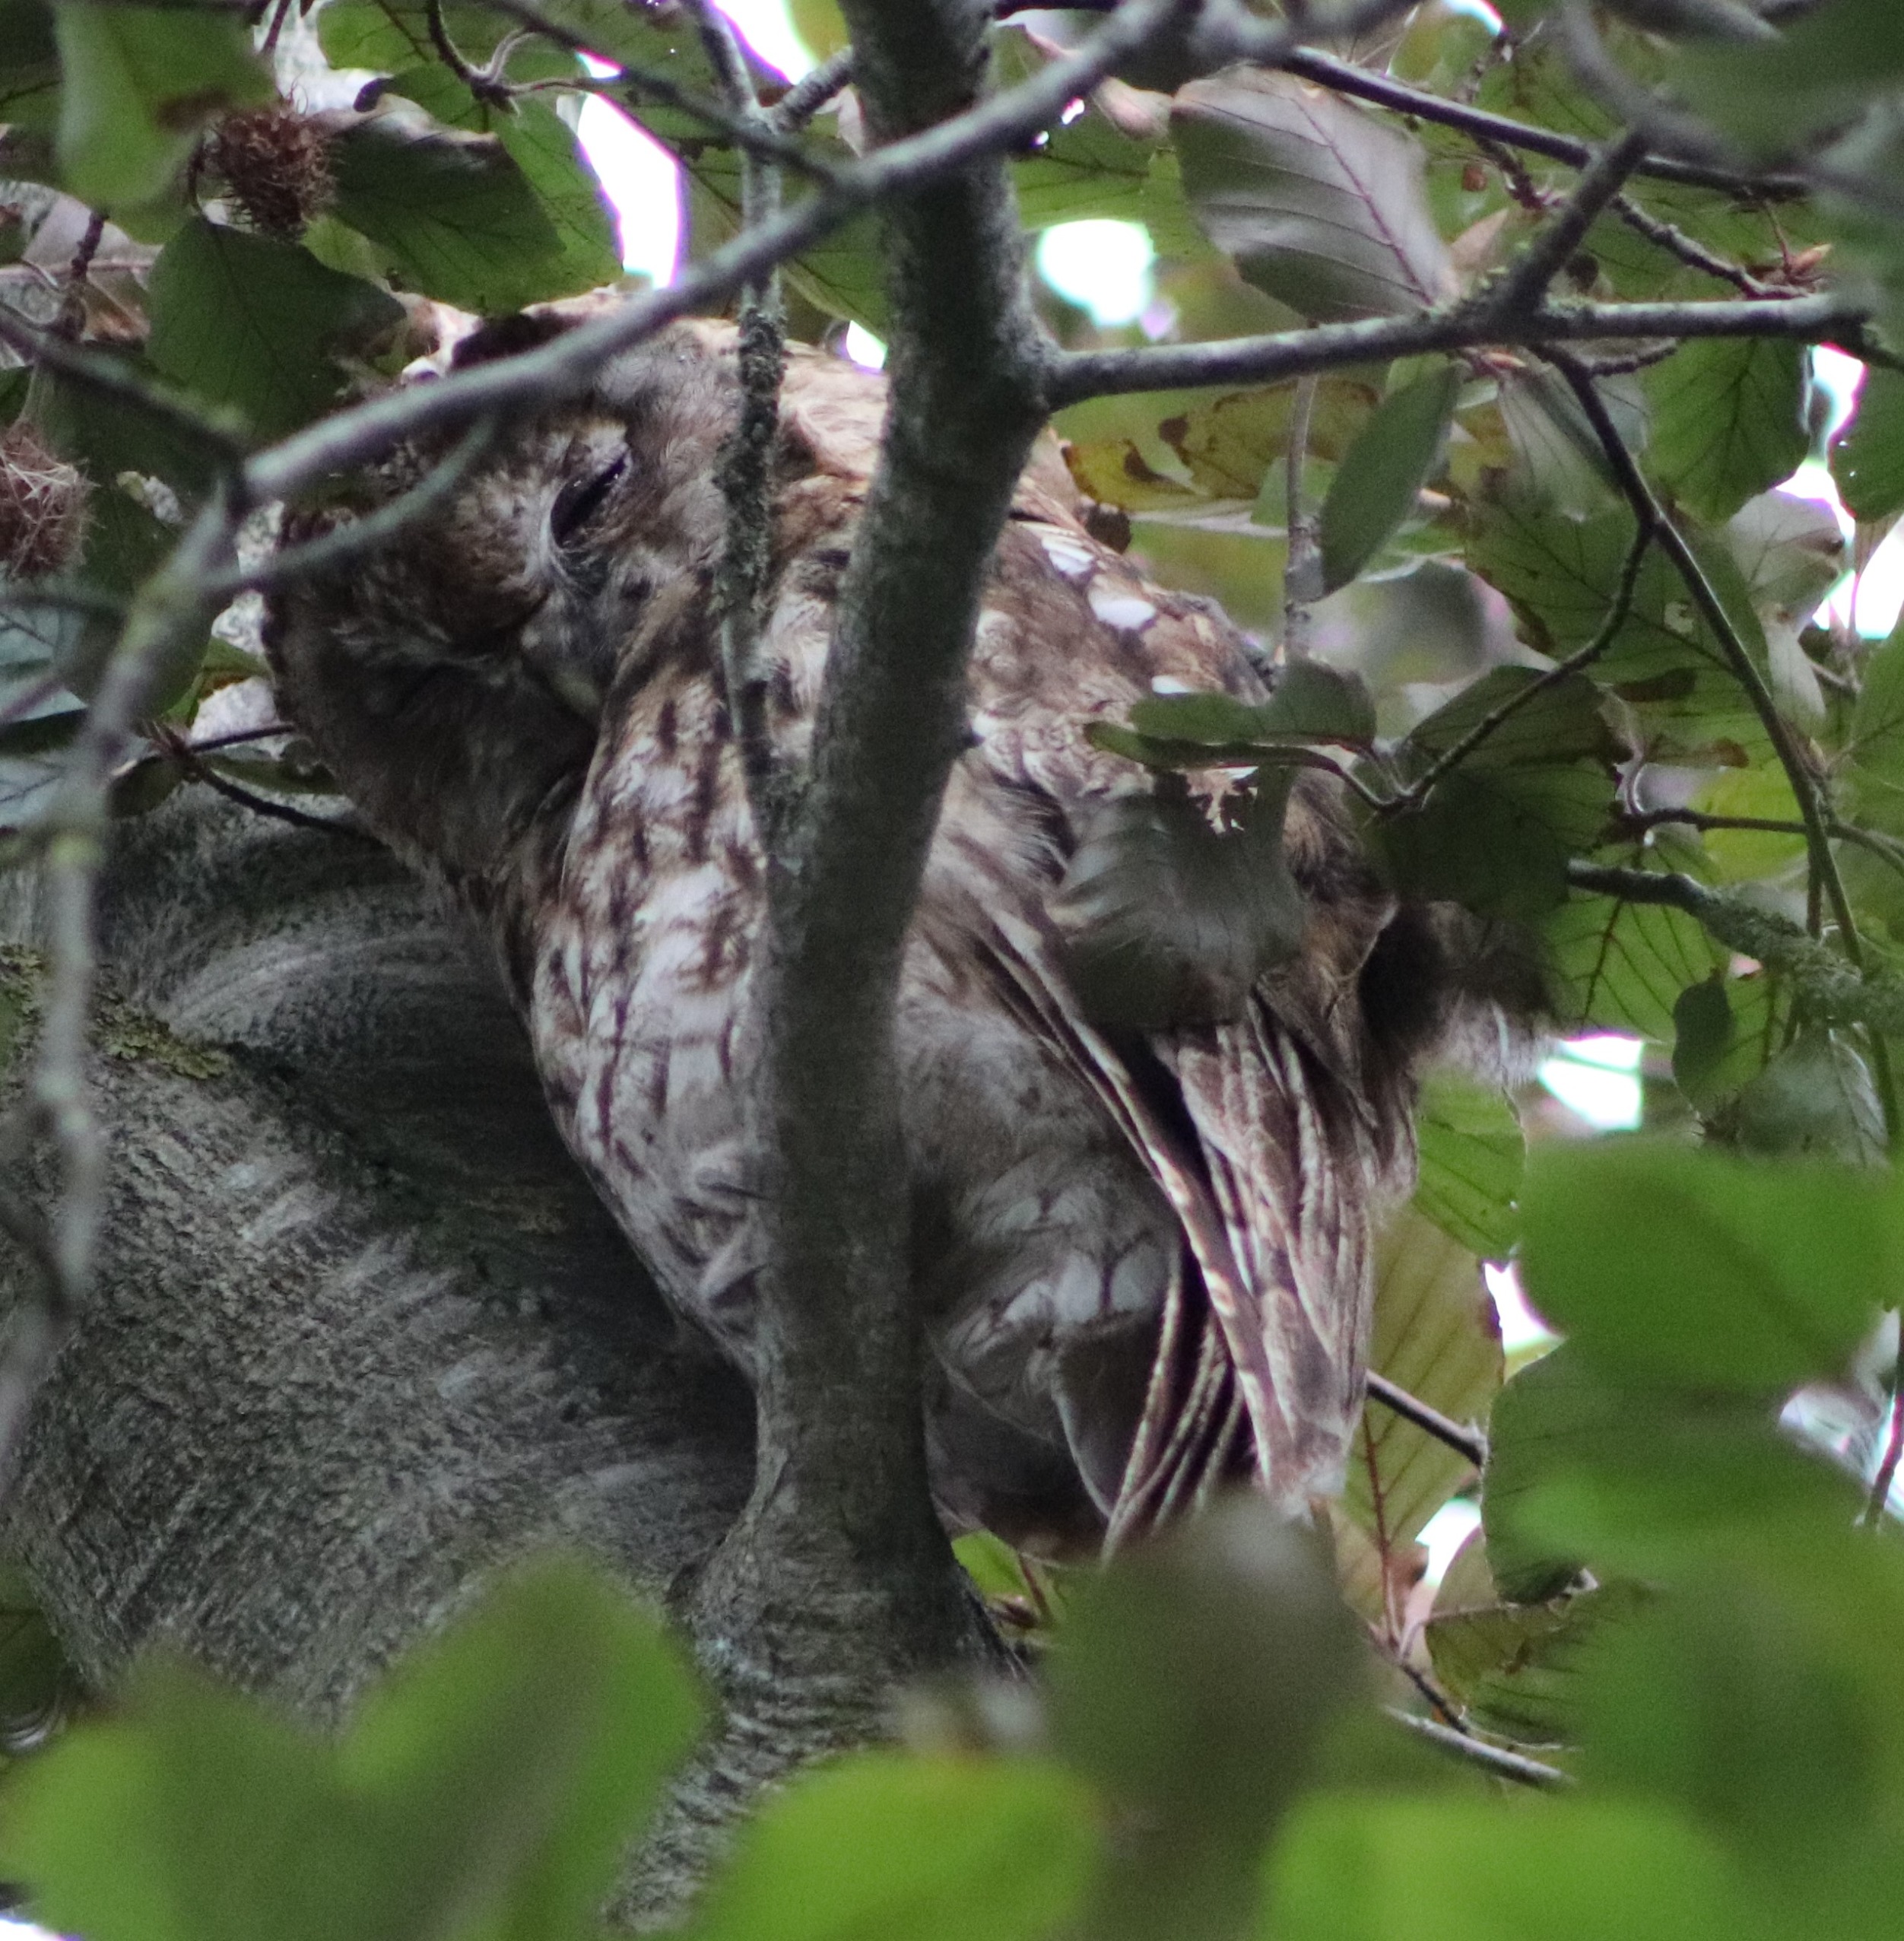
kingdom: Animalia
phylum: Chordata
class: Aves
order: Strigiformes
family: Strigidae
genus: Strix
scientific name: Strix aluco
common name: Natugle
